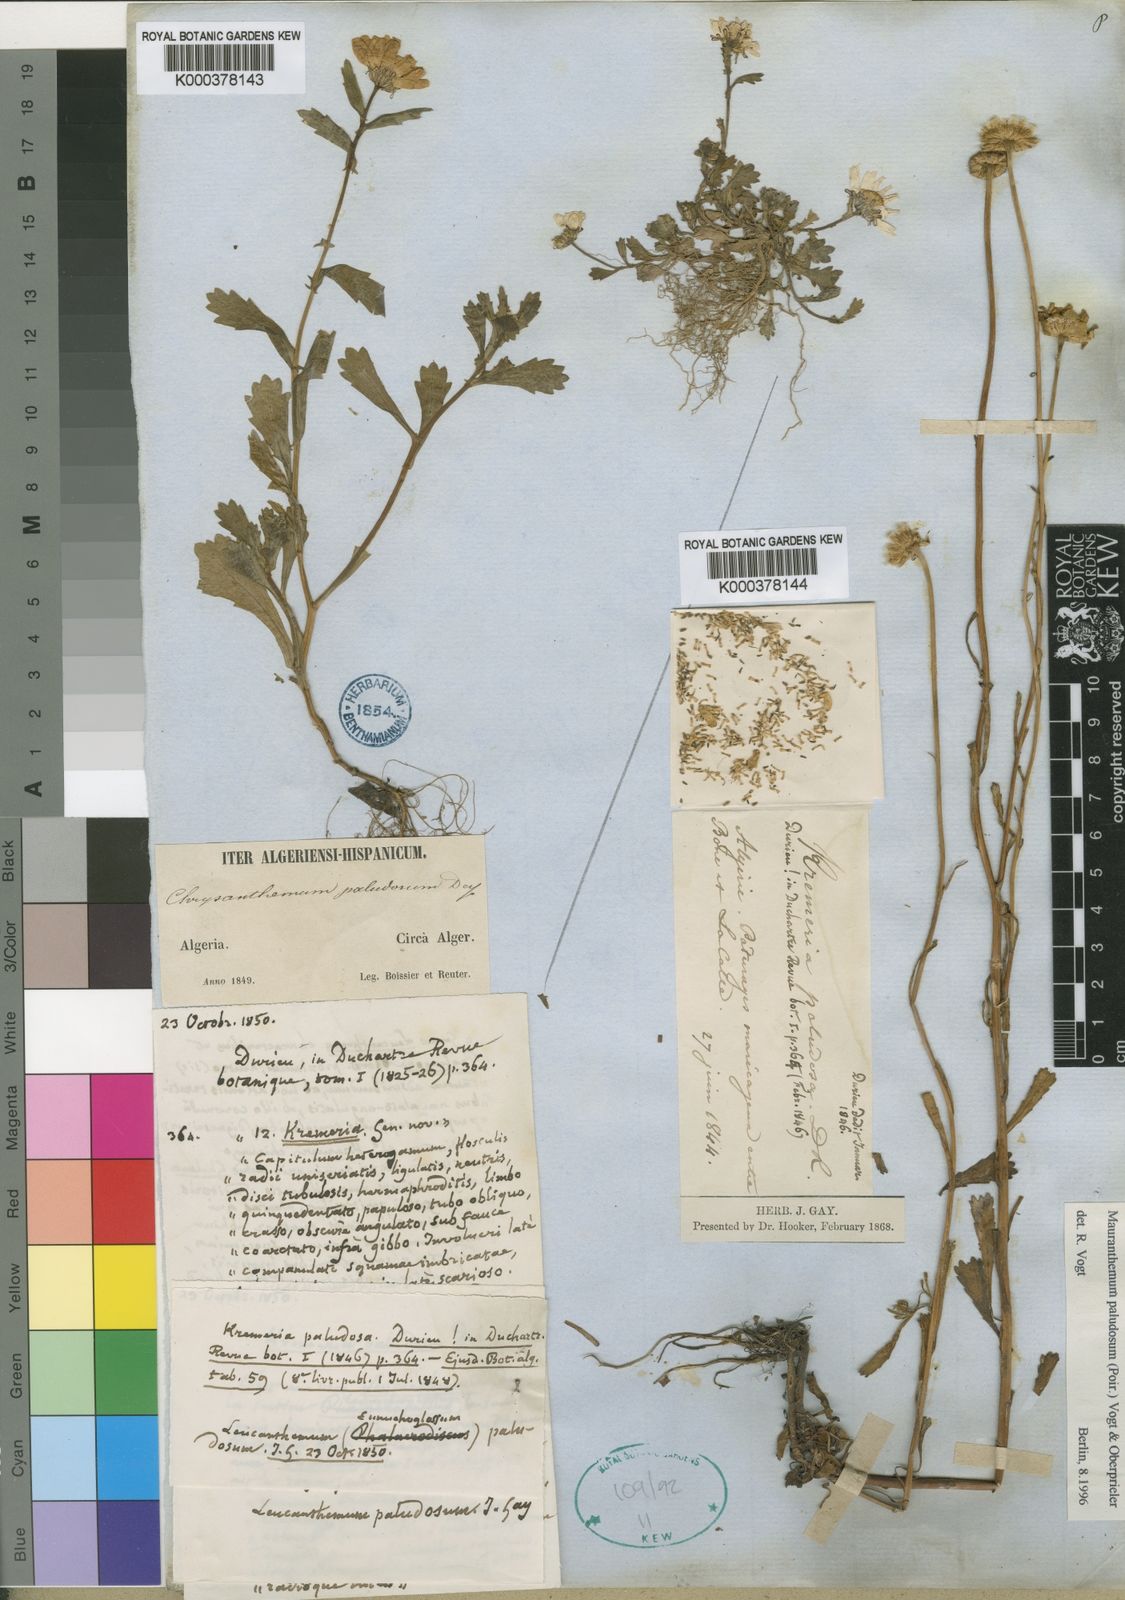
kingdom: Plantae
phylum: Tracheophyta
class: Magnoliopsida
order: Asterales
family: Asteraceae
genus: Mauranthemum
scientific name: Mauranthemum paludosum
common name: Sunflower
